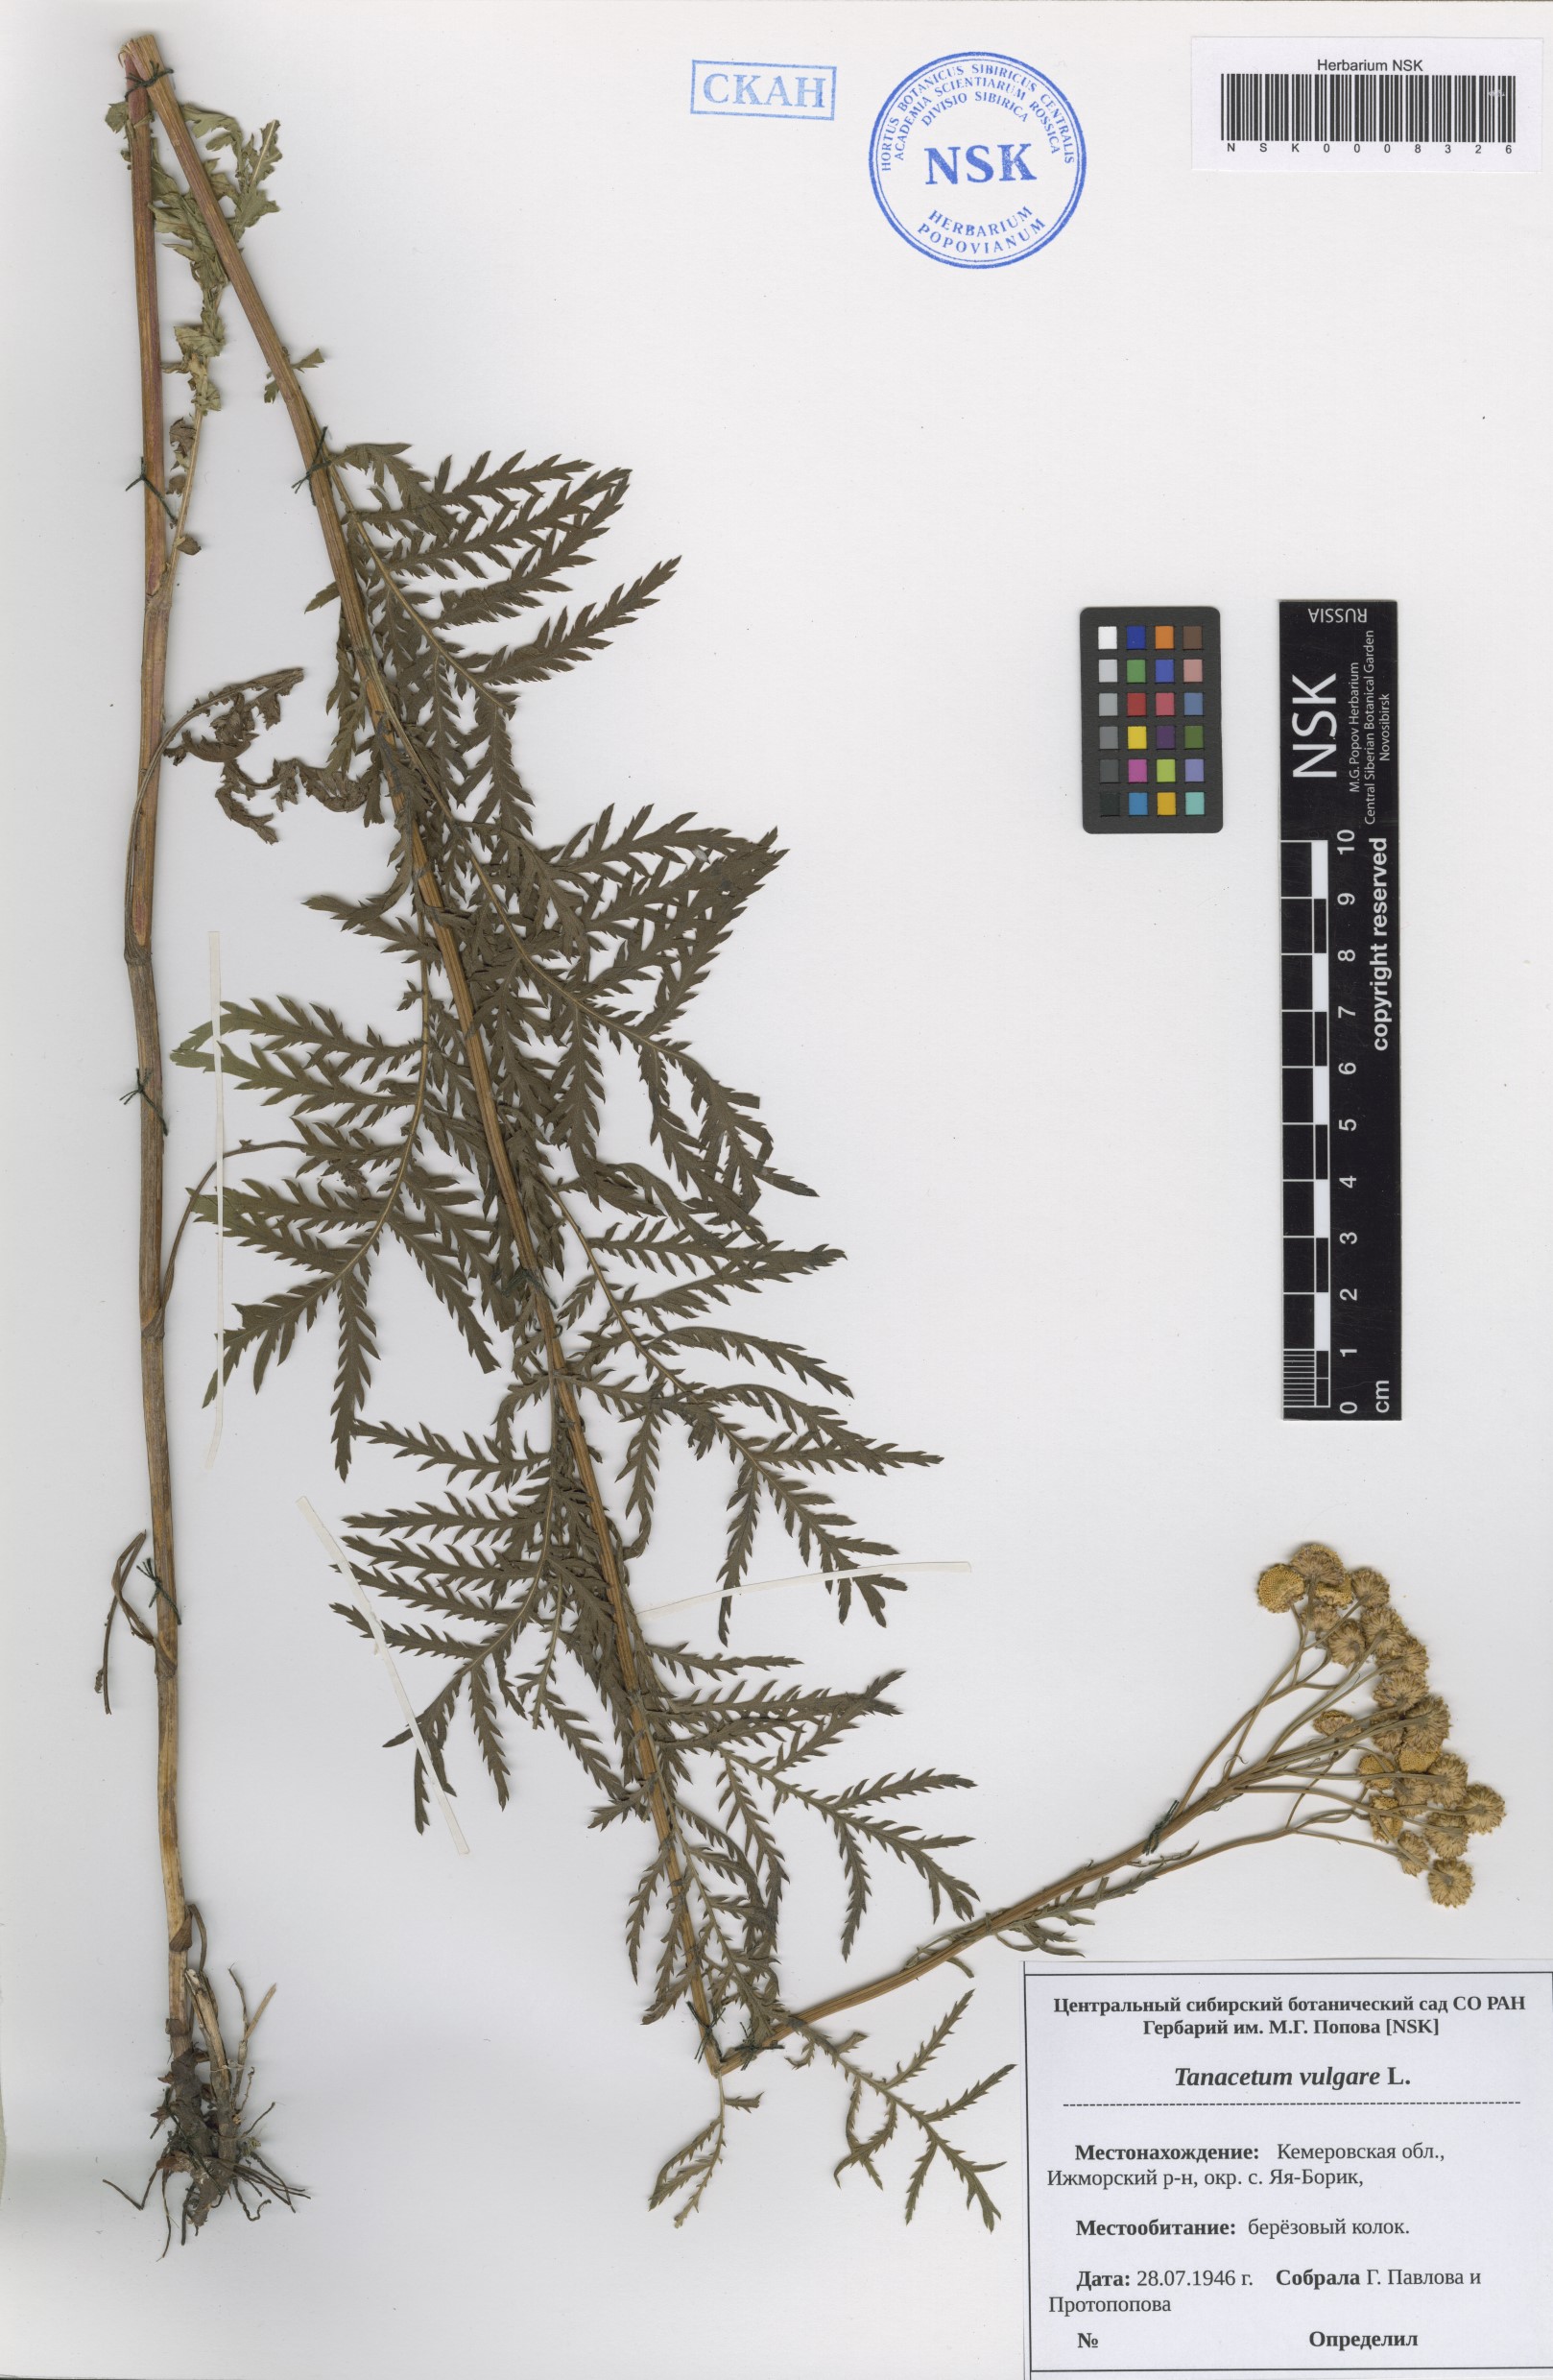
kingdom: Plantae
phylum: Tracheophyta
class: Magnoliopsida
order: Asterales
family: Asteraceae
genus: Tanacetum
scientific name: Tanacetum vulgare
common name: Common tansy
